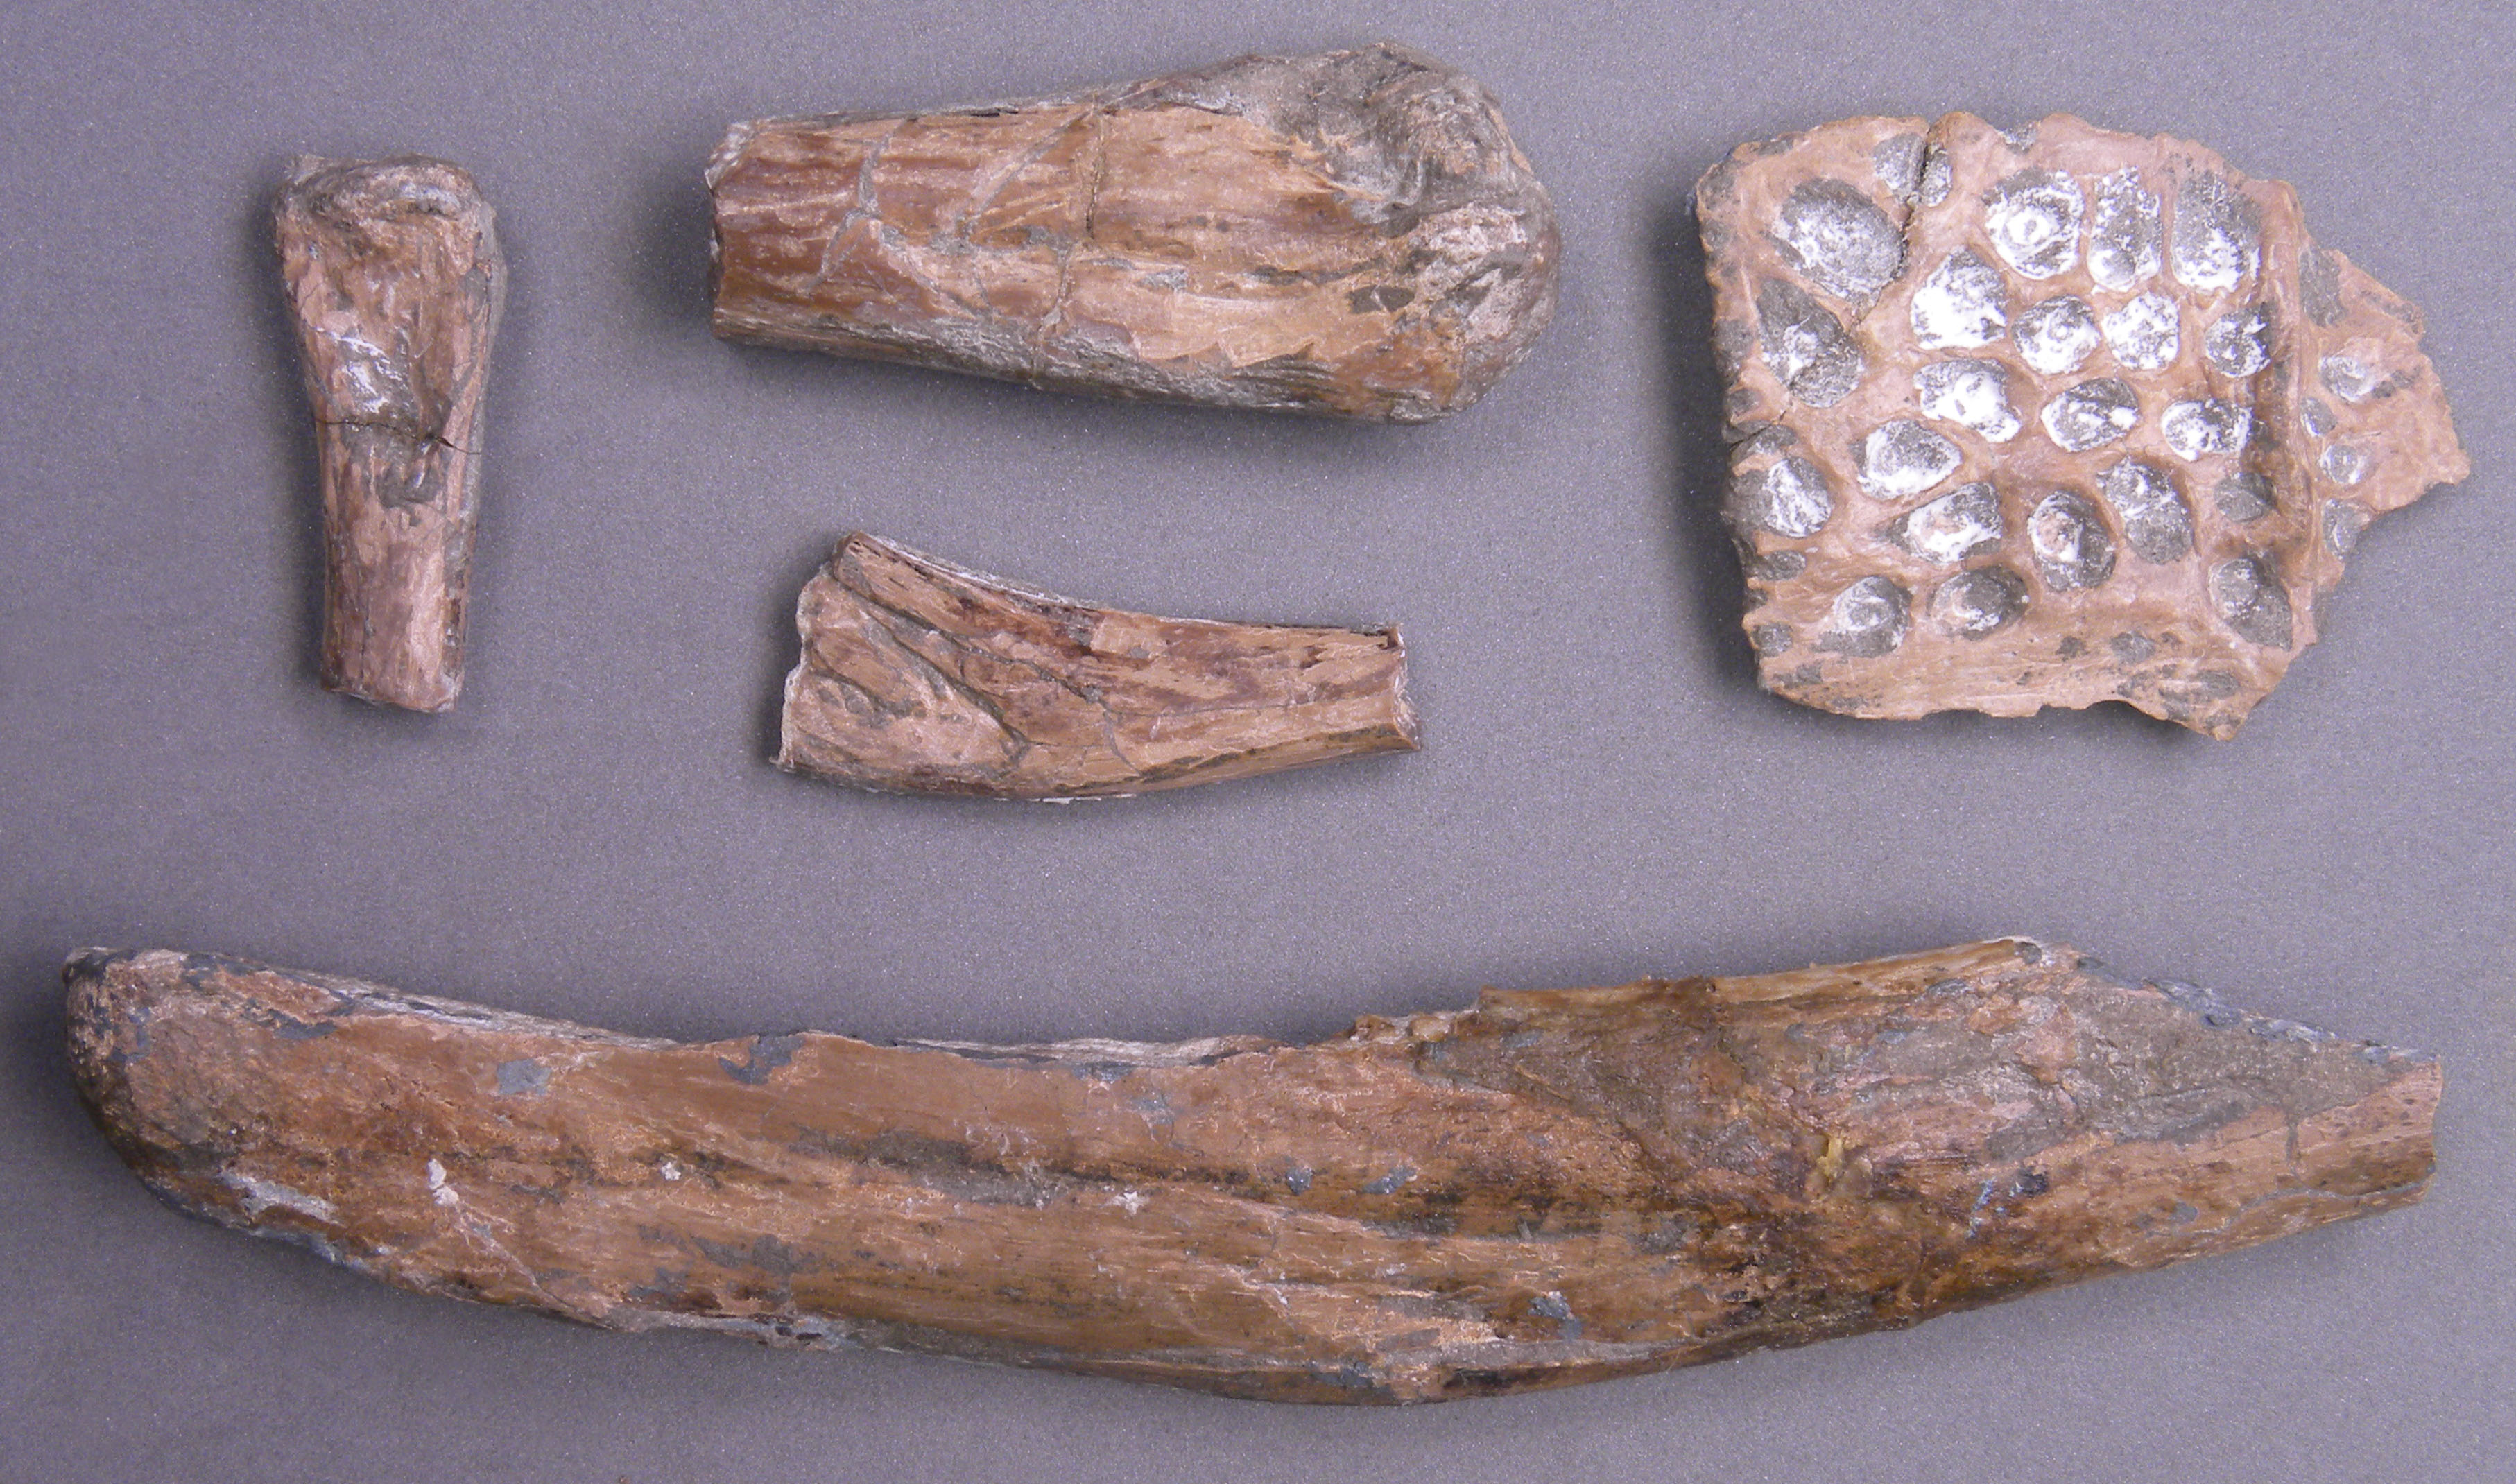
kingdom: Animalia
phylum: Chordata
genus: Mystriosaurus
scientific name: Mystriosaurus Geosaurus bollensis
